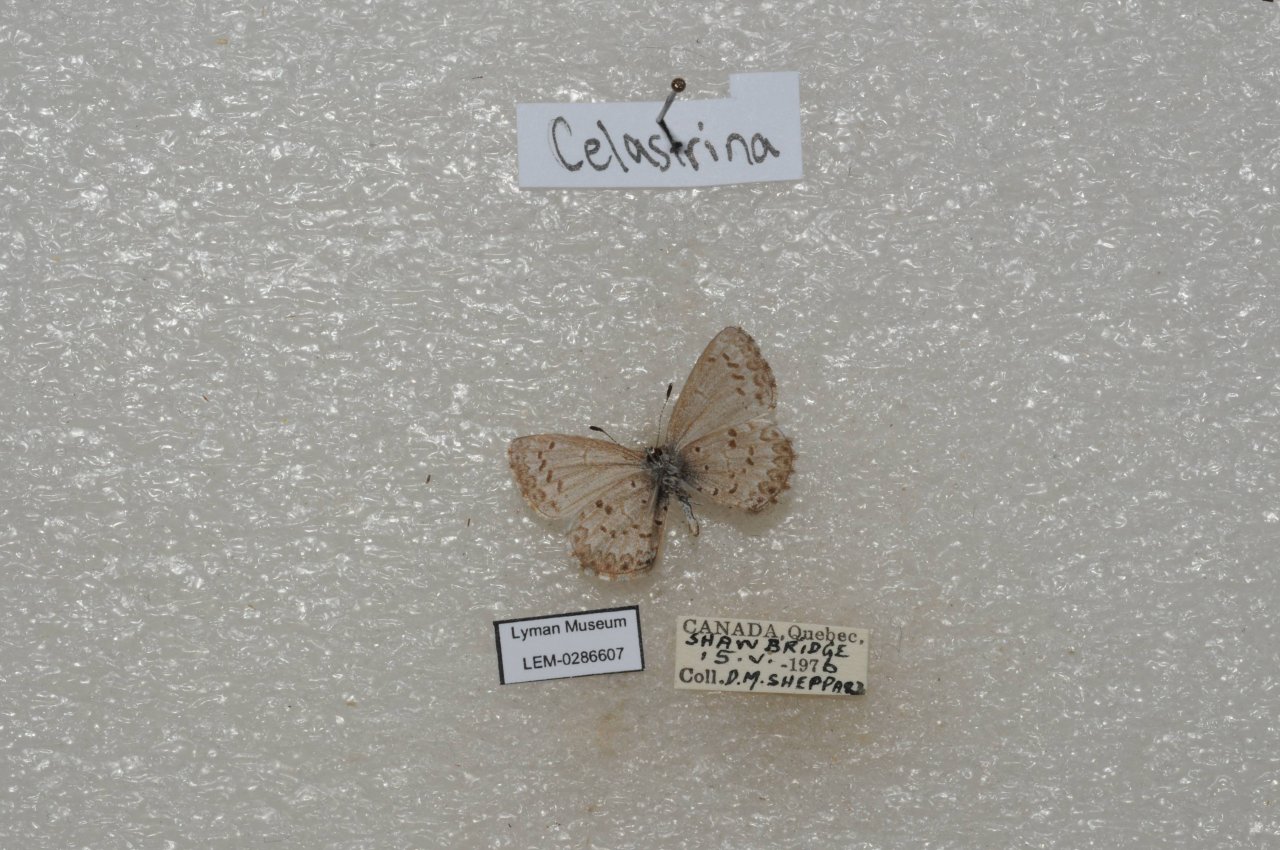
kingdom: Animalia
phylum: Arthropoda
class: Insecta
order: Lepidoptera
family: Lycaenidae
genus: Celastrina
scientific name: Celastrina lucia
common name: Northern Spring Azure
